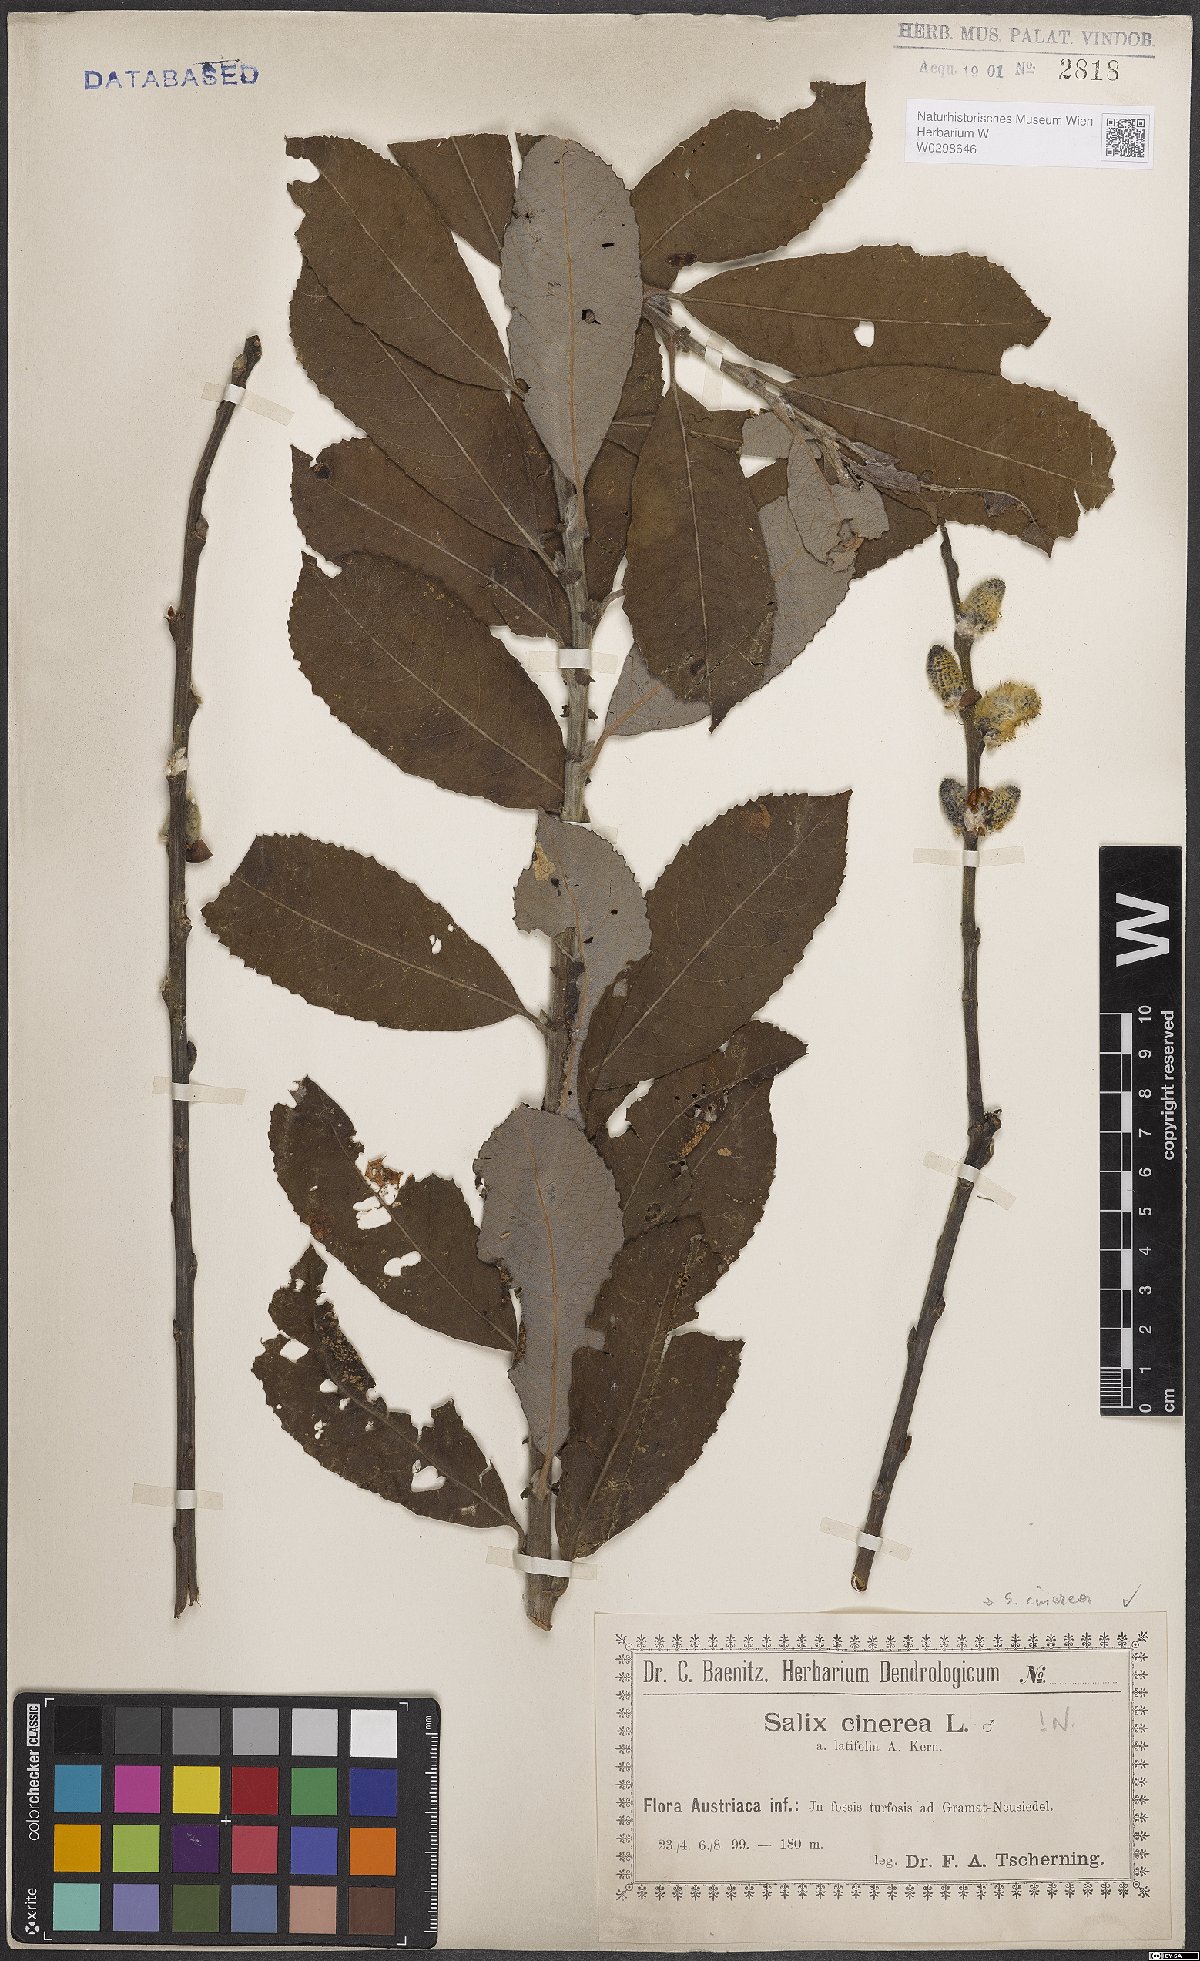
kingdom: Plantae
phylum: Tracheophyta
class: Magnoliopsida
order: Malpighiales
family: Salicaceae
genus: Salix
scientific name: Salix cinerea
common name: Common sallow
